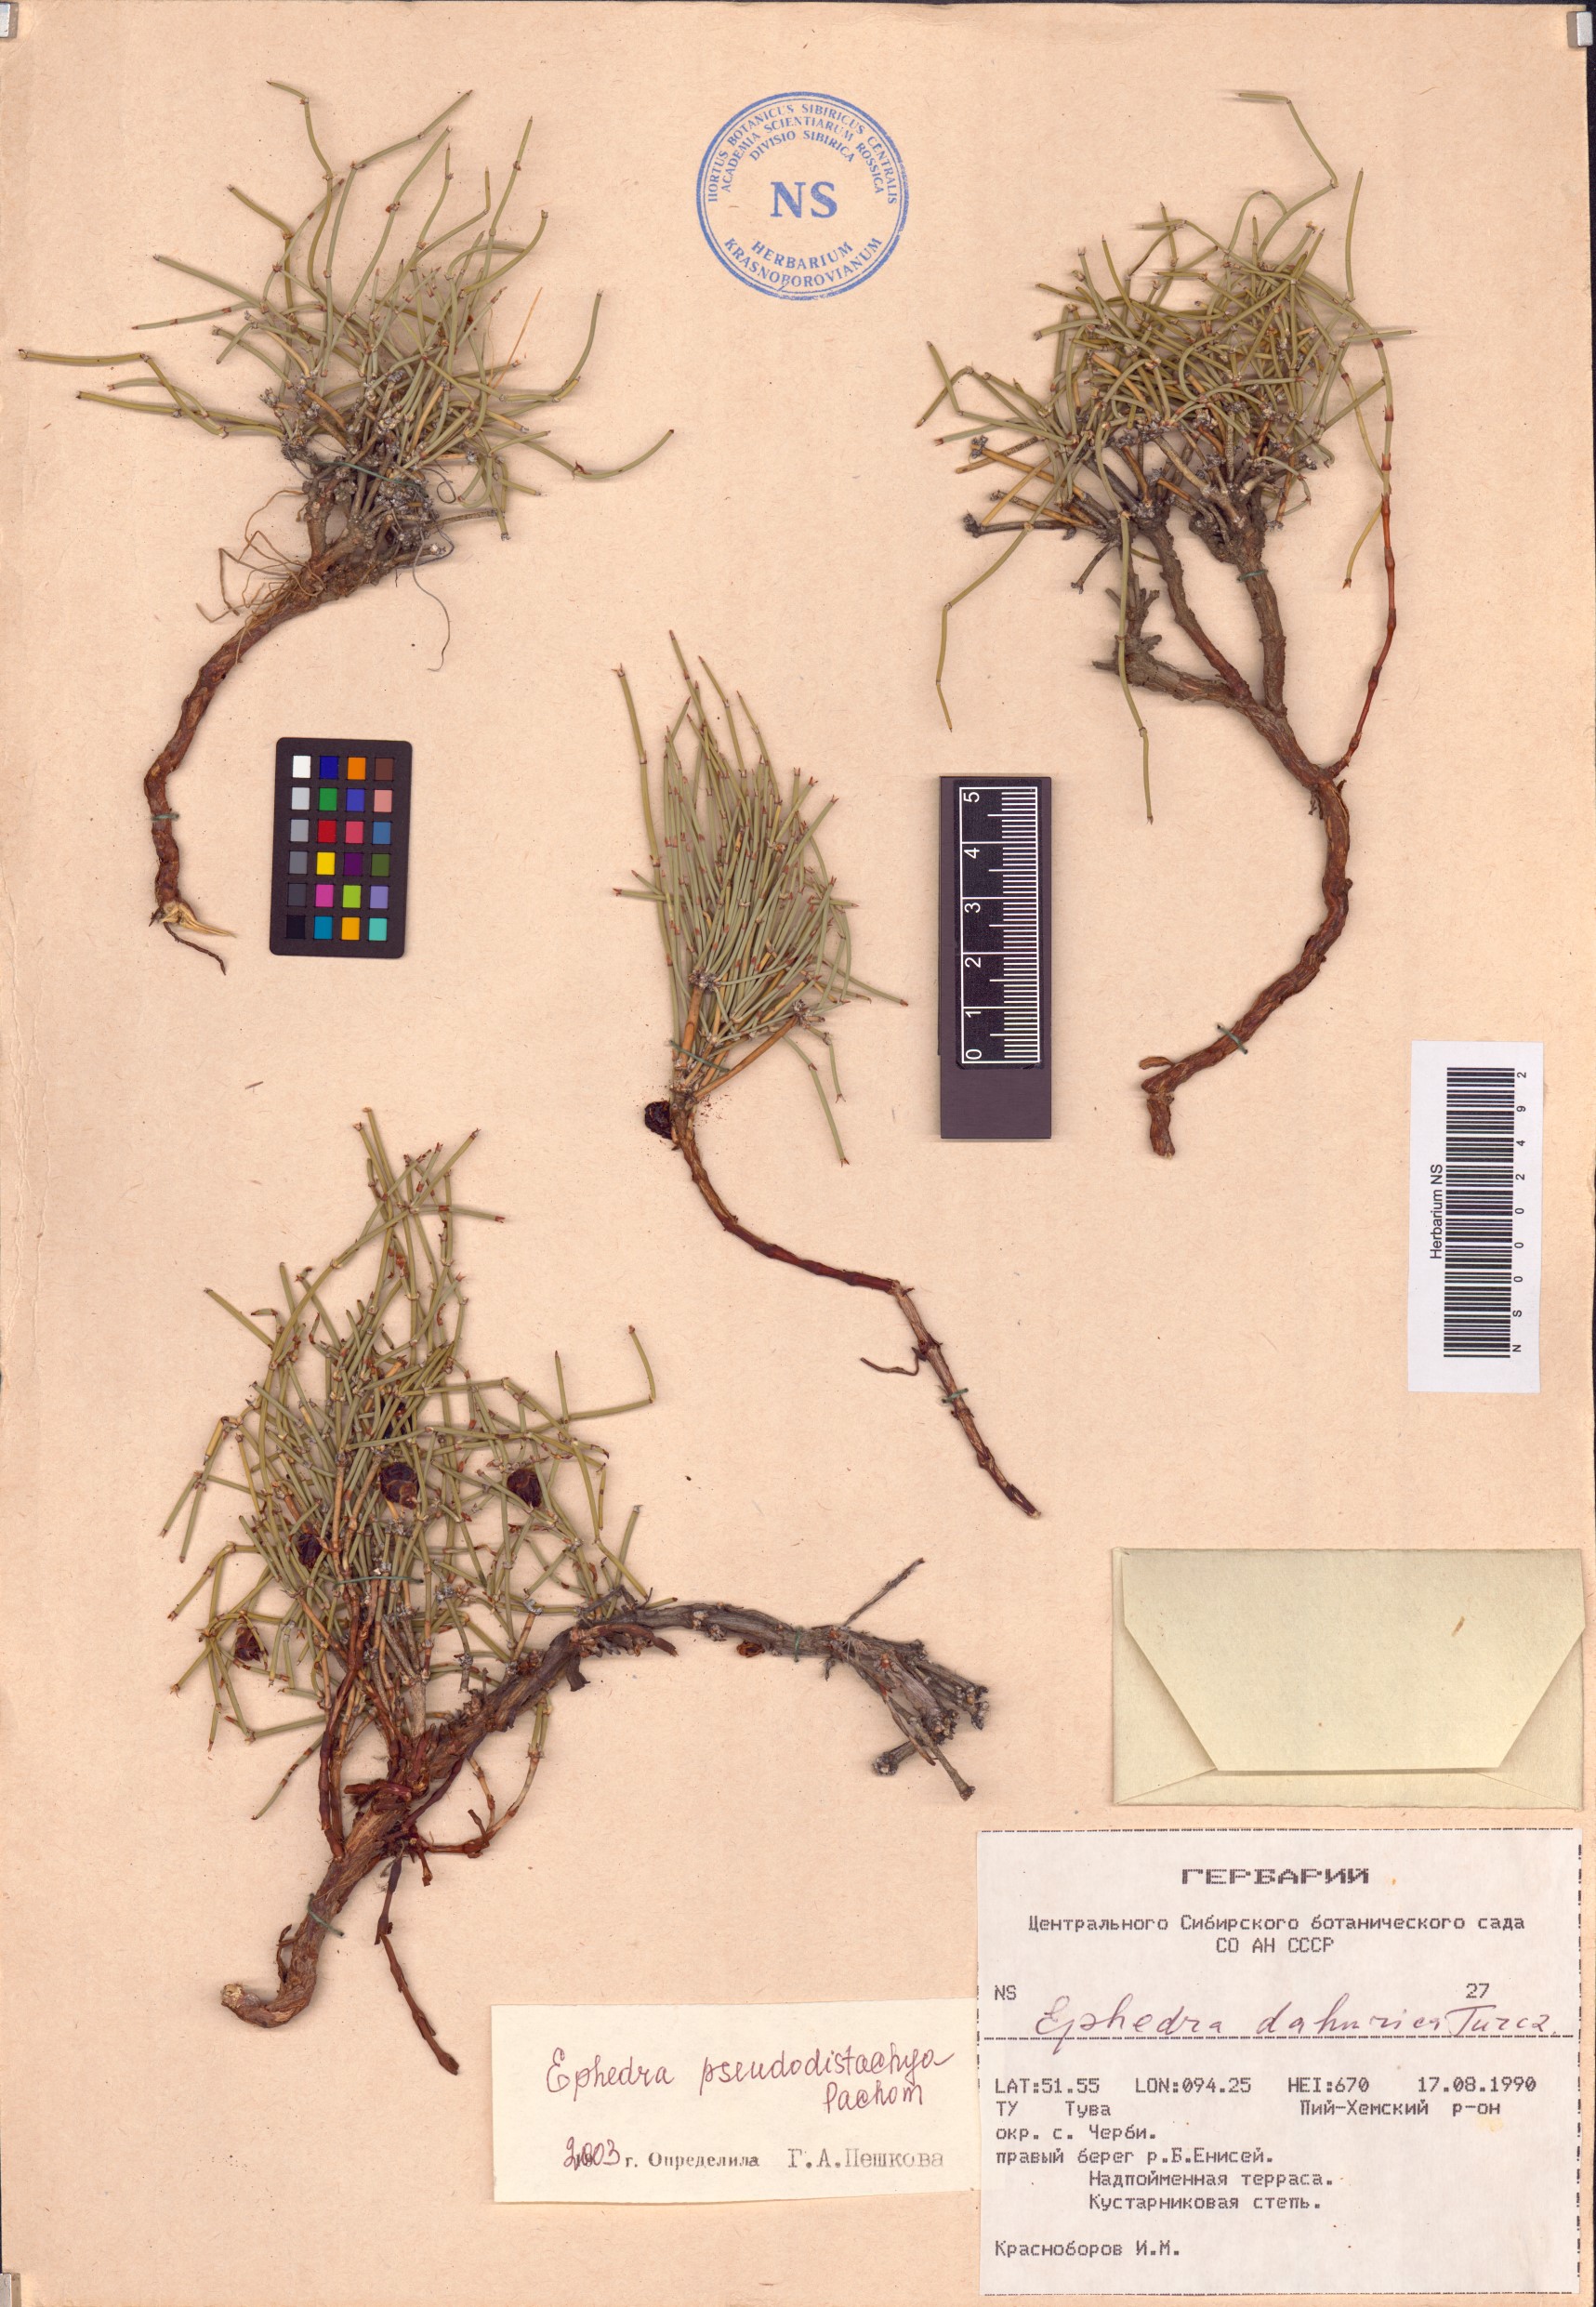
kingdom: Plantae
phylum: Tracheophyta
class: Gnetopsida
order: Ephedrales
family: Ephedraceae
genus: Ephedra
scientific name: Ephedra pseudodistachya
